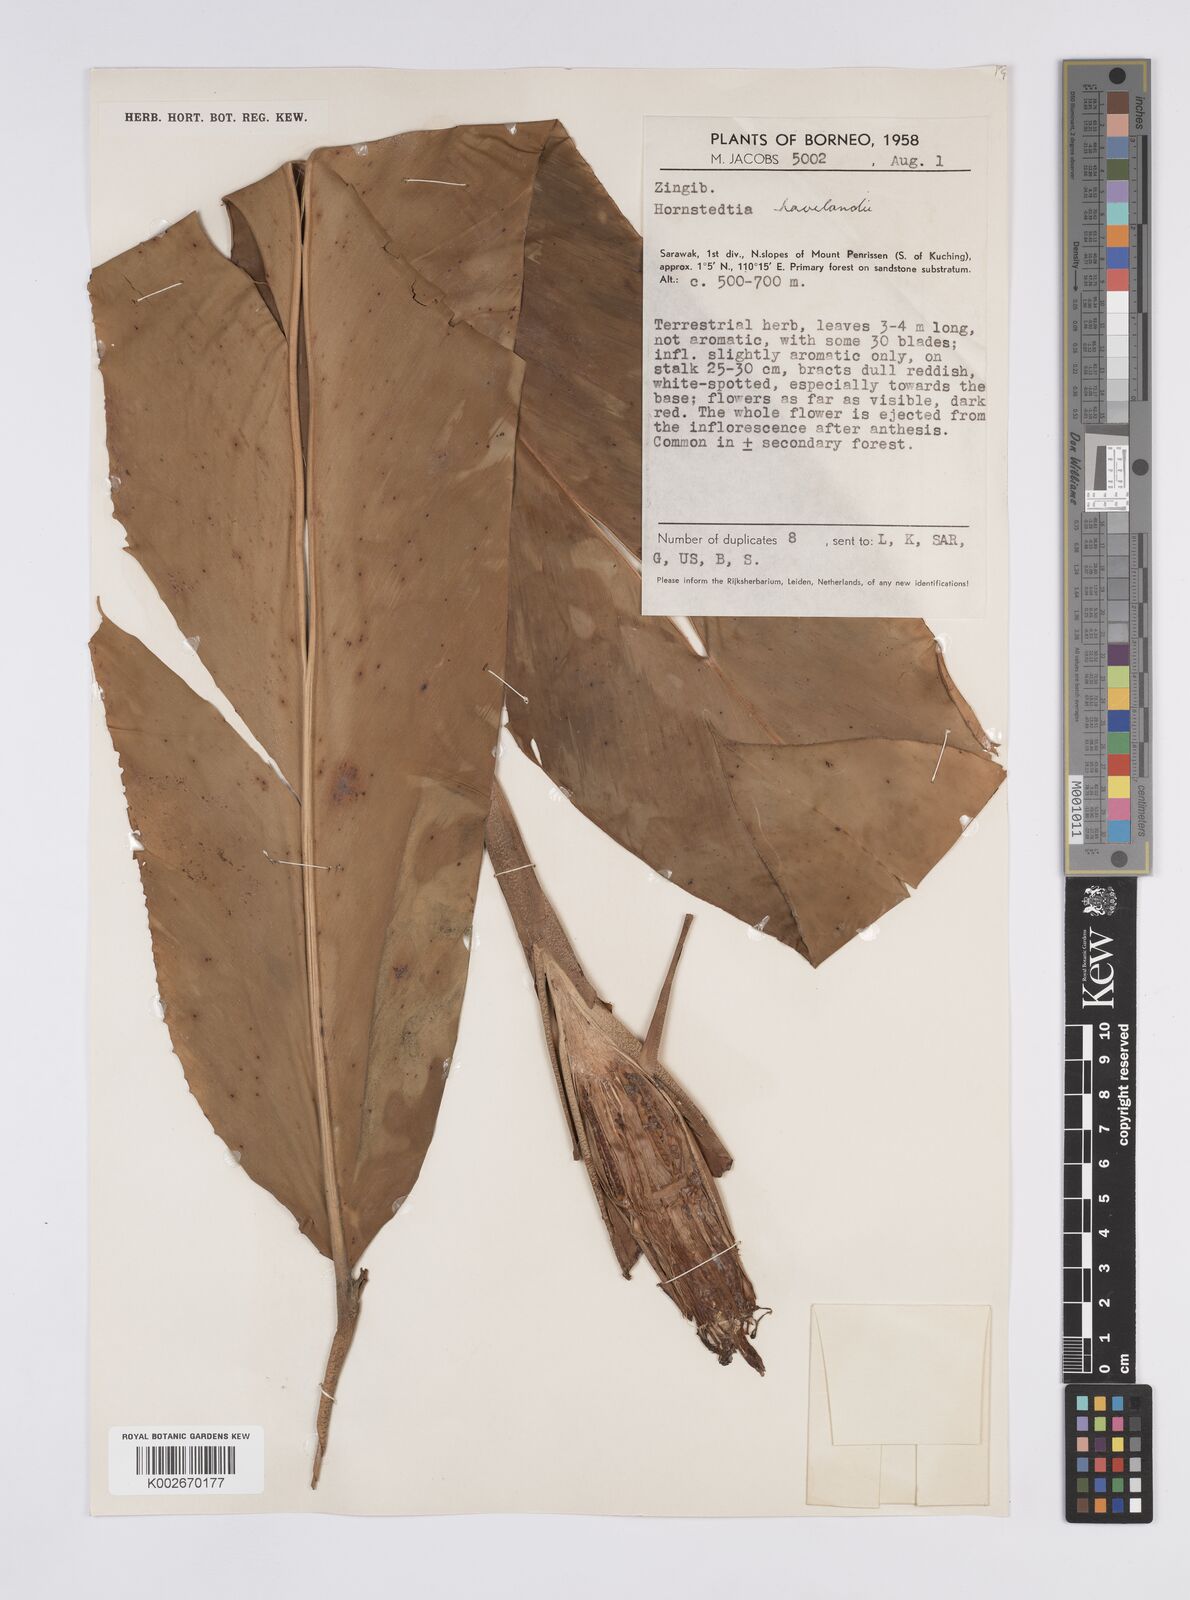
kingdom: Plantae
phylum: Tracheophyta
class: Liliopsida
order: Zingiberales
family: Zingiberaceae
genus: Hornstedtia
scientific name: Hornstedtia havilandii
